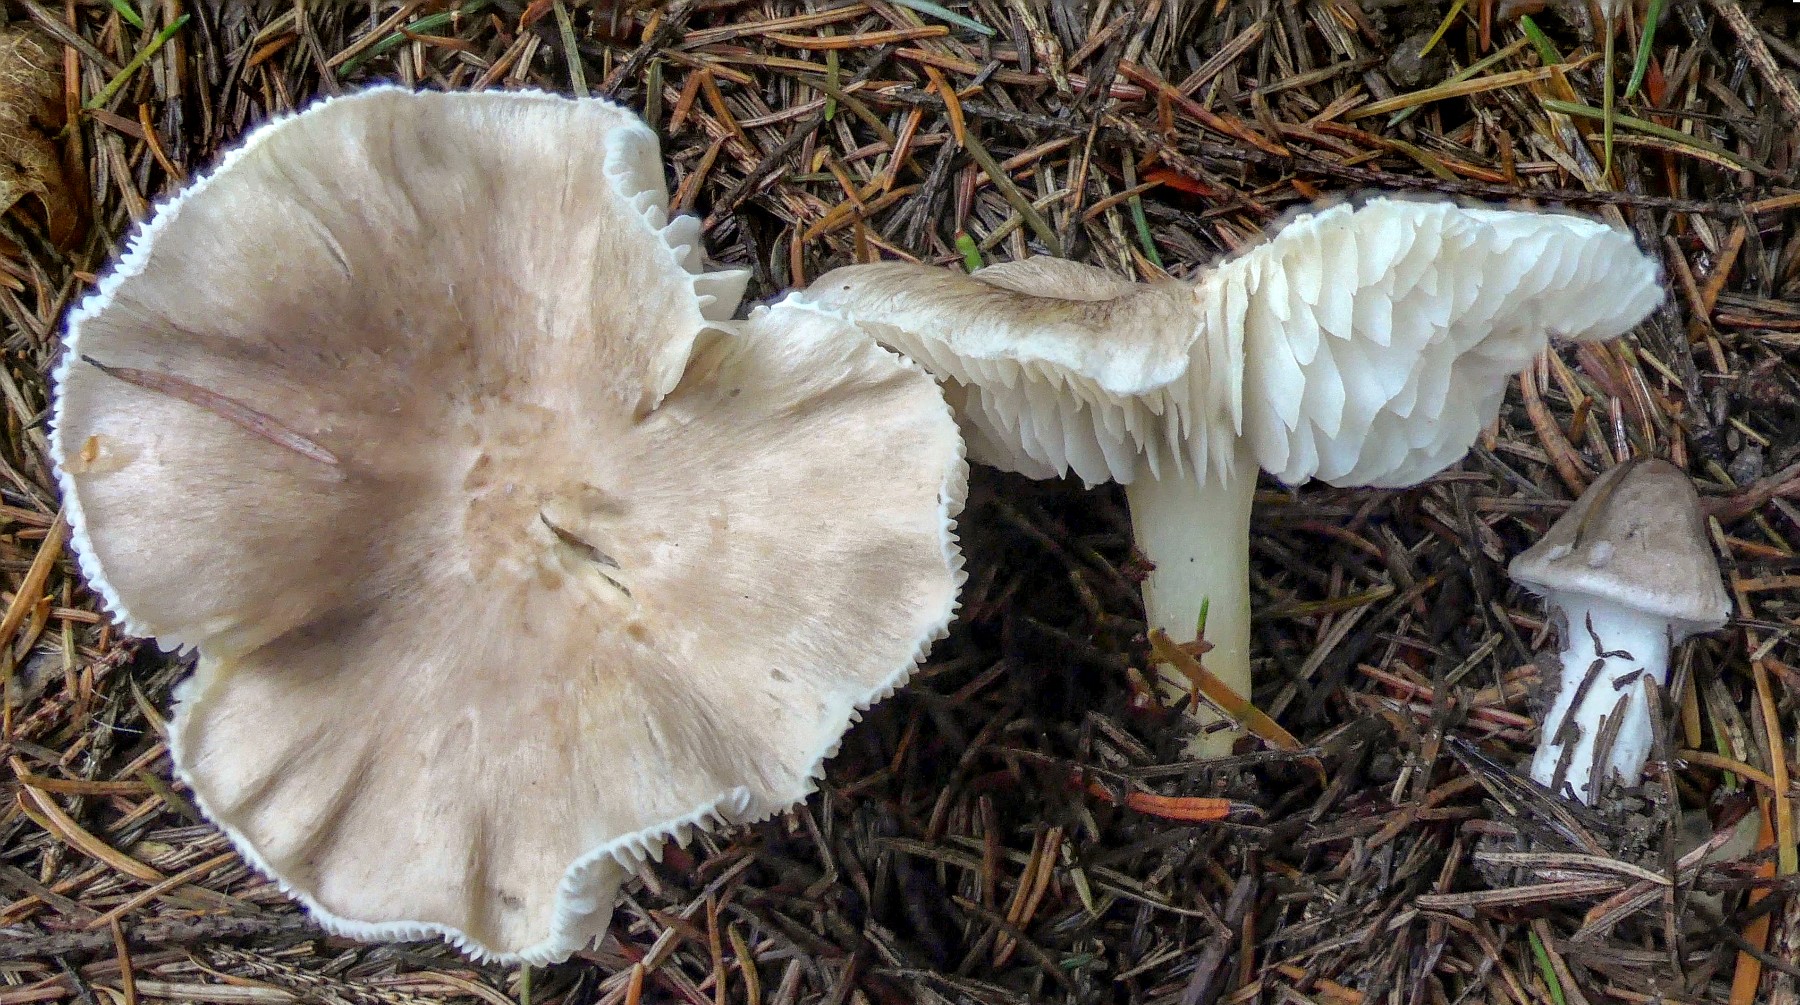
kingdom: Fungi
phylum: Basidiomycota
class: Agaricomycetes
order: Agaricales
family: Tricholomataceae
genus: Tricholoma
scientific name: Tricholoma argyraceum
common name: slør-ridderhat
